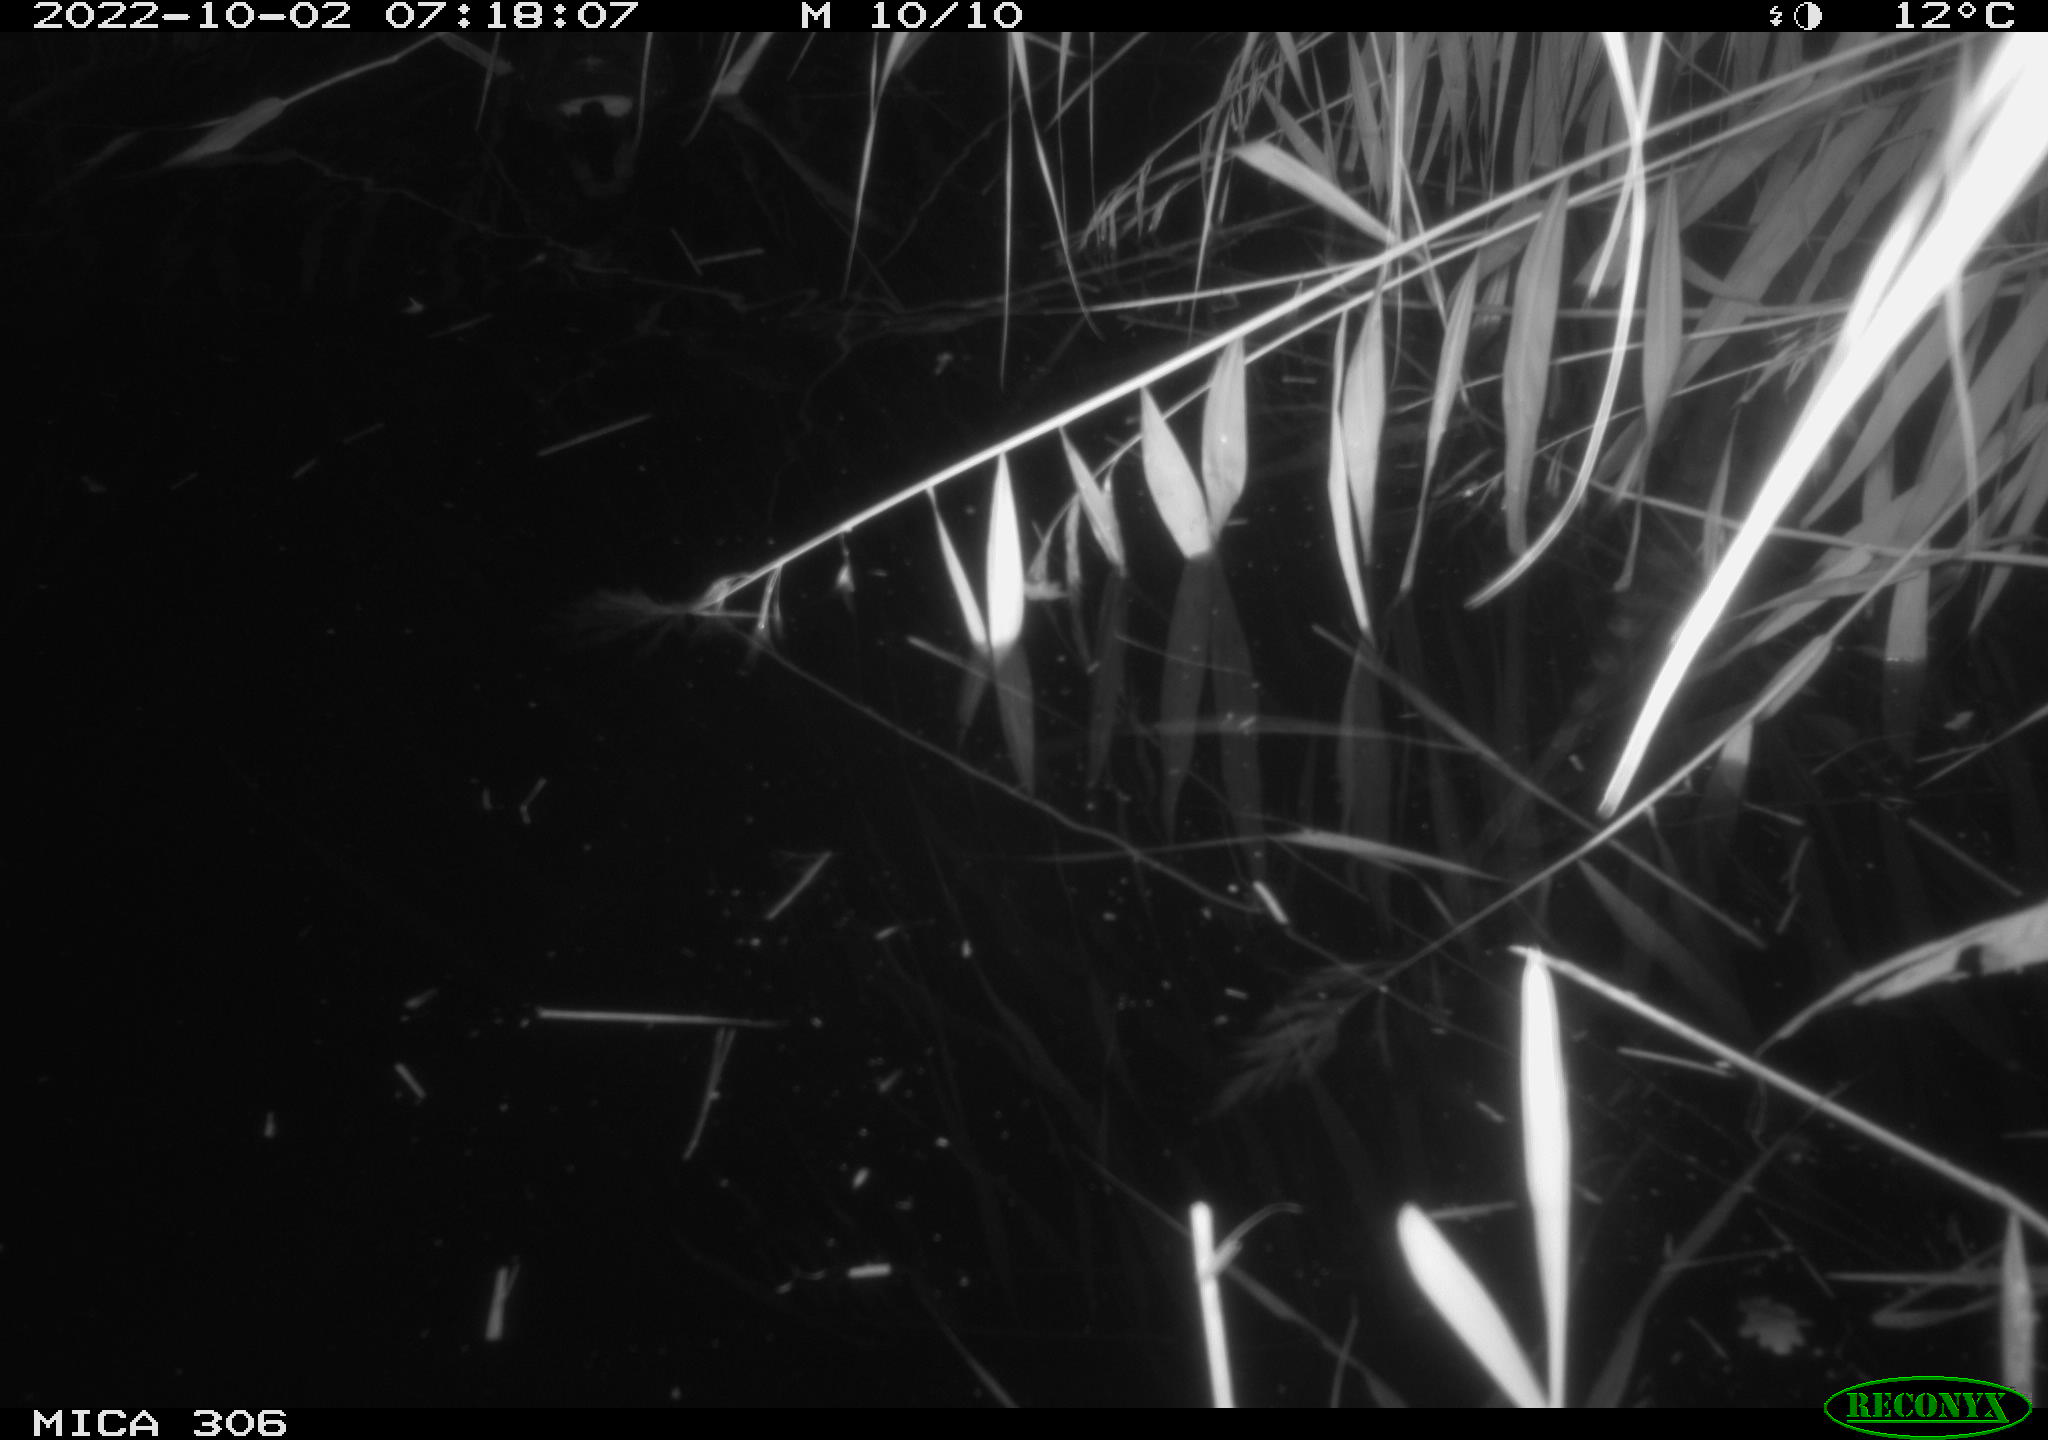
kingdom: Animalia
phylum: Chordata
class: Aves
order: Gruiformes
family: Rallidae
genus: Gallinula
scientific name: Gallinula chloropus
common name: Common moorhen
